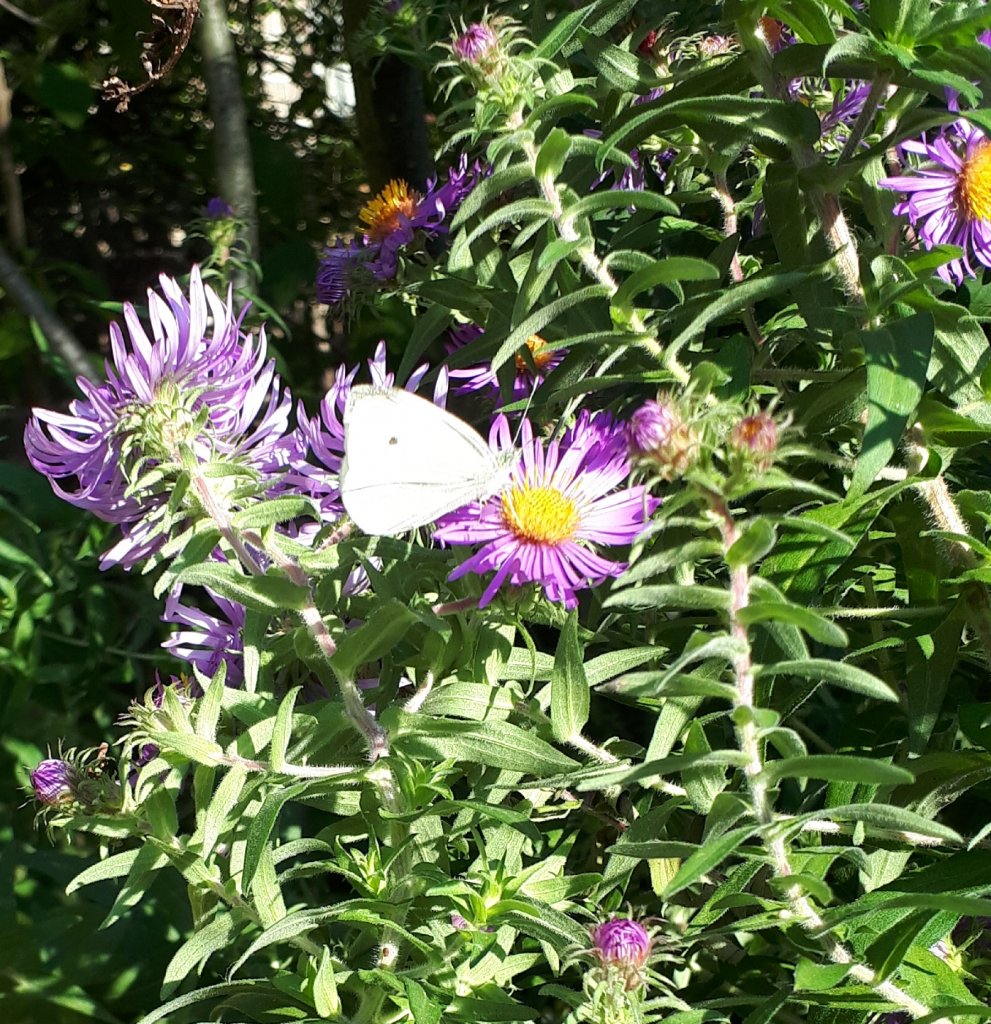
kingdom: Animalia
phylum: Arthropoda
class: Insecta
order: Lepidoptera
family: Pieridae
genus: Pieris
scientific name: Pieris rapae
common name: Cabbage White
